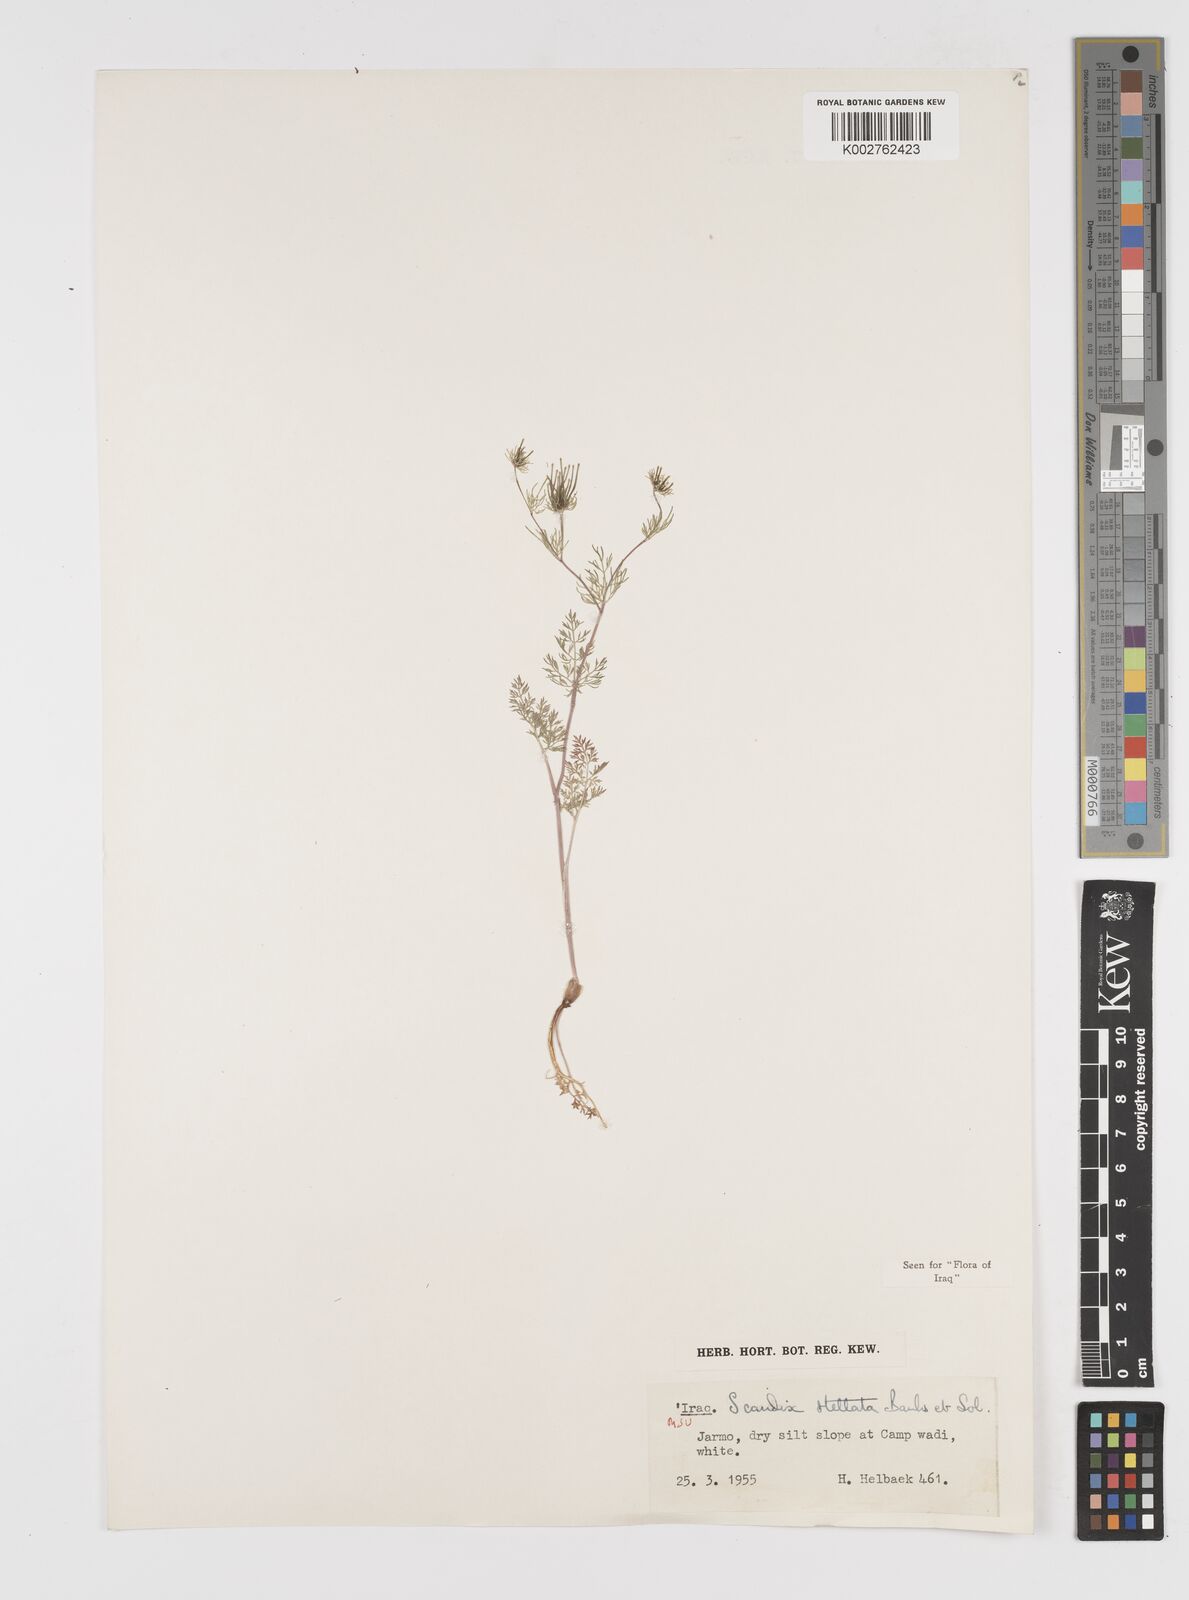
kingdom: Plantae
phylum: Tracheophyta
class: Magnoliopsida
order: Apiales
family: Apiaceae
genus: Scandix
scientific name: Scandix stellata
